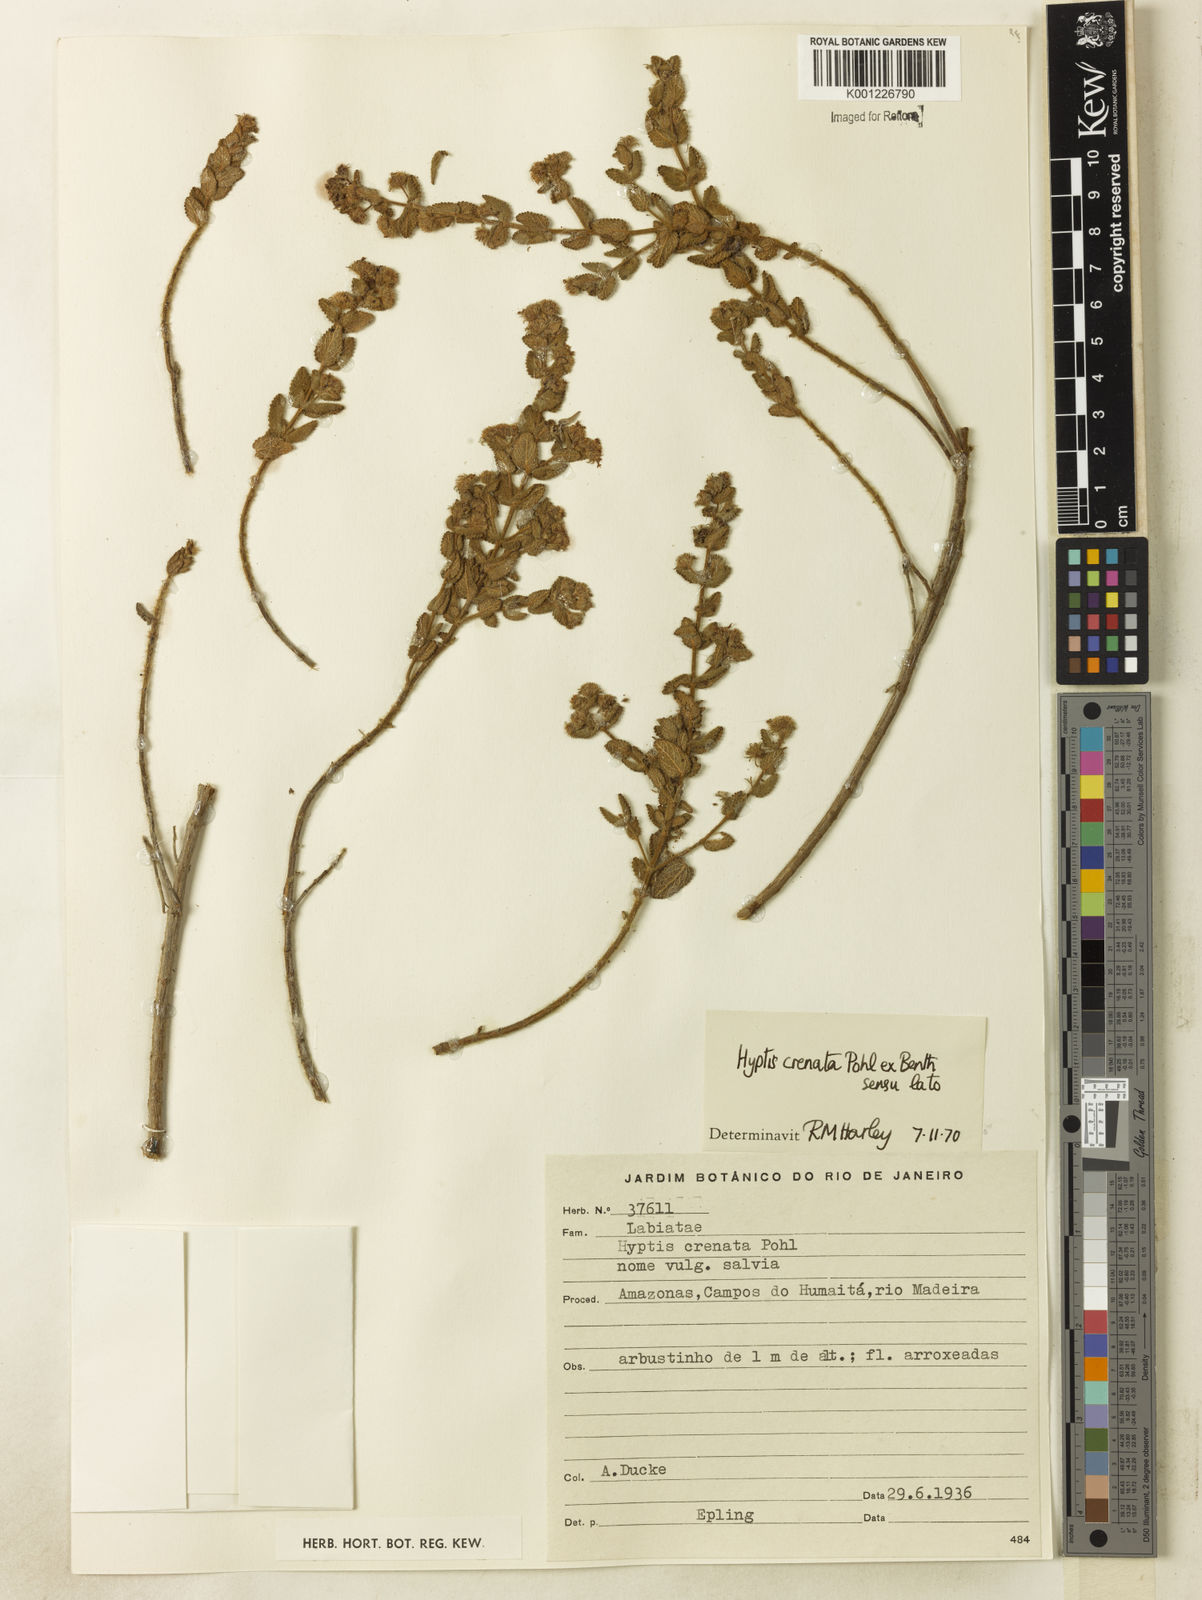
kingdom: Plantae
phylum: Tracheophyta
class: Magnoliopsida
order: Lamiales
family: Lamiaceae
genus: Hyptis
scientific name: Hyptis crenata
